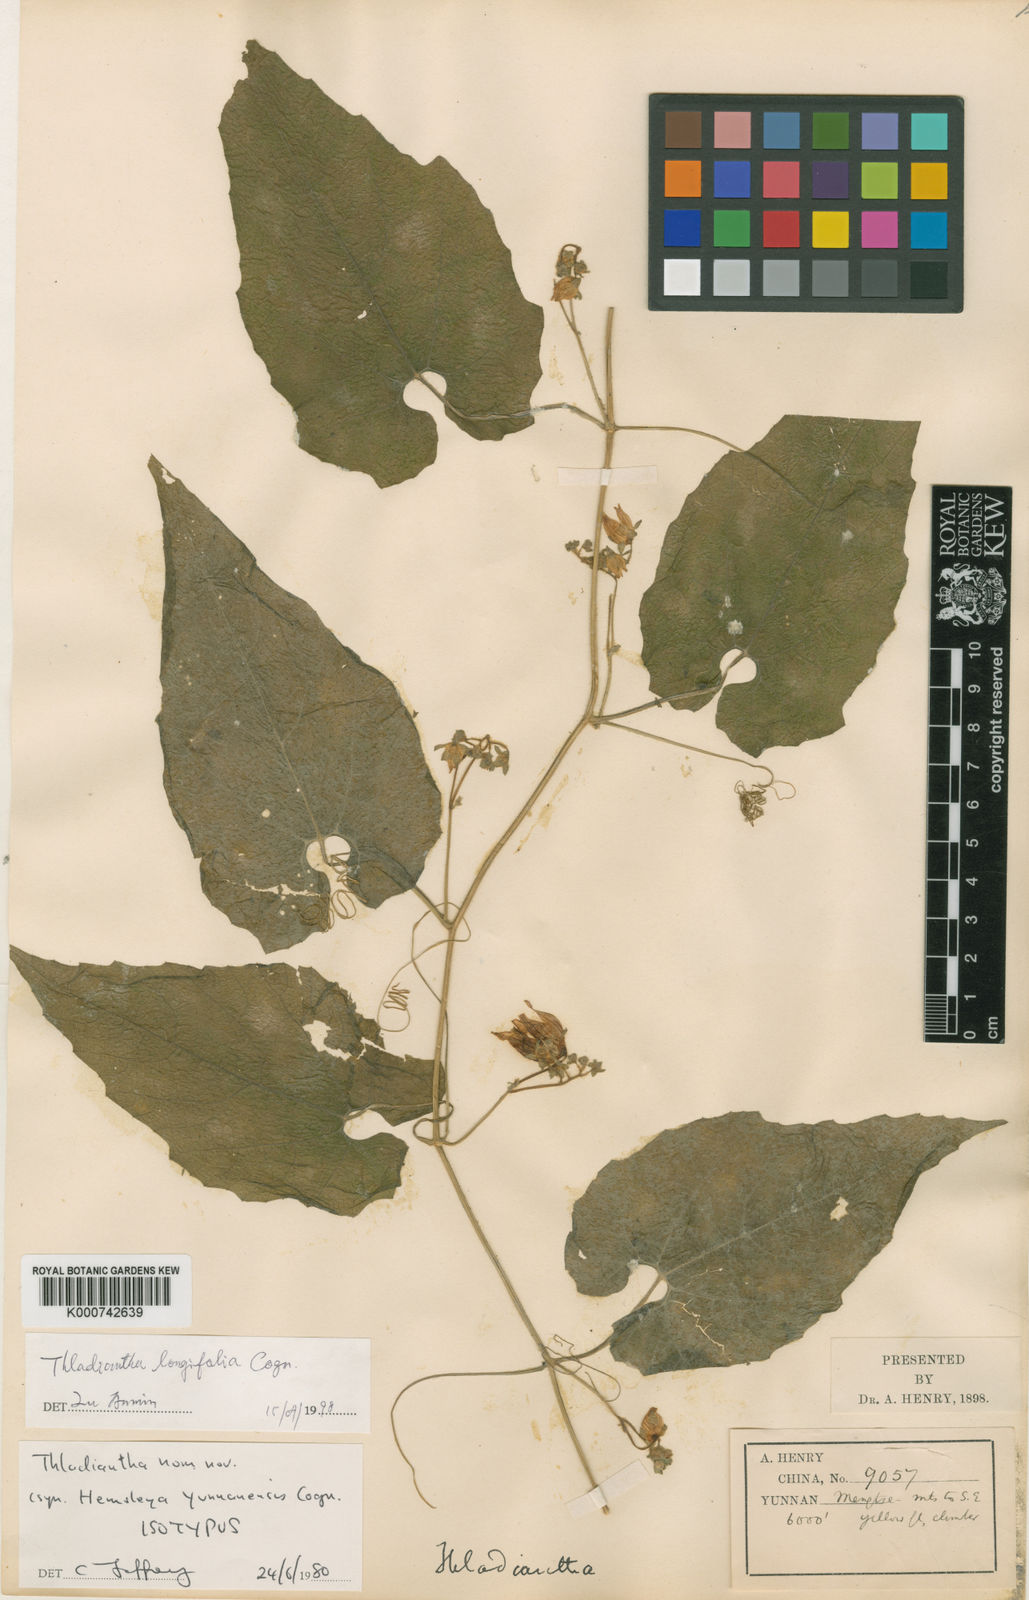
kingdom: Plantae
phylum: Tracheophyta
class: Magnoliopsida
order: Cucurbitales
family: Cucurbitaceae
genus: Thladiantha
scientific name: Thladiantha pustulata
